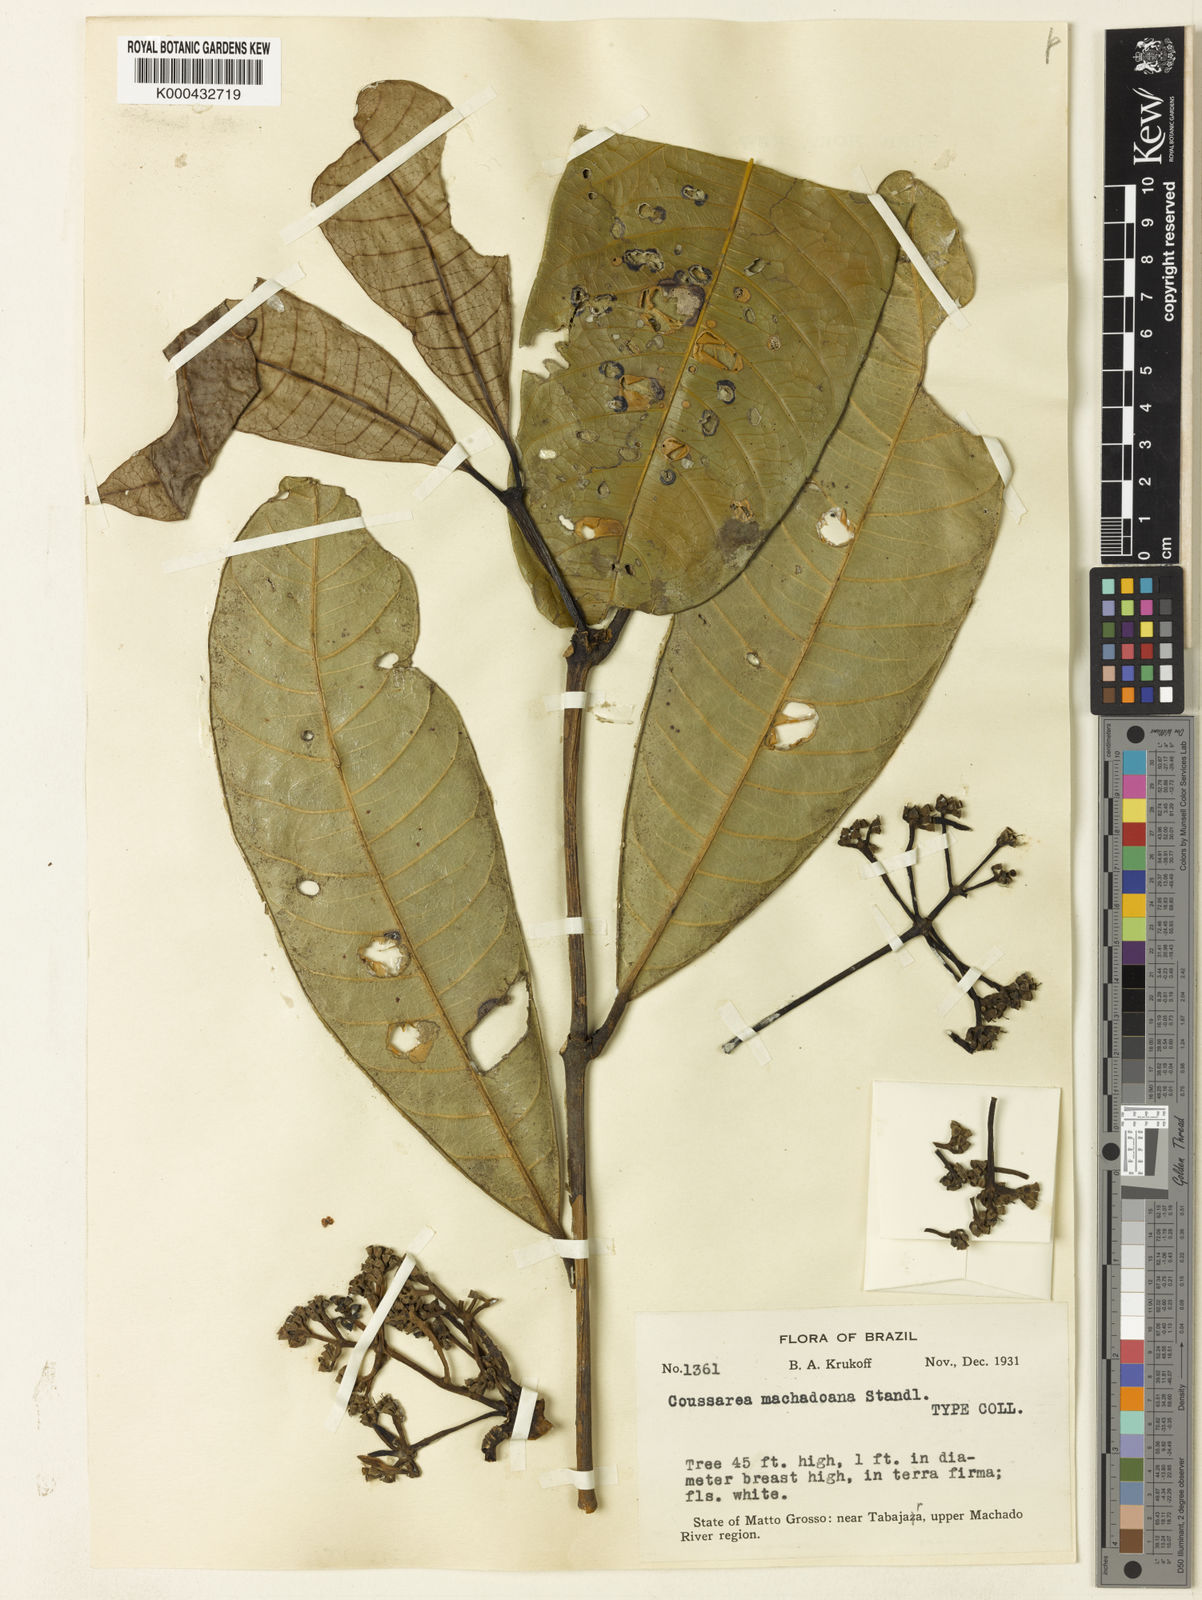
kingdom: Plantae
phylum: Tracheophyta
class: Magnoliopsida
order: Gentianales
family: Rubiaceae
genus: Coussarea
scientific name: Coussarea machadoana
